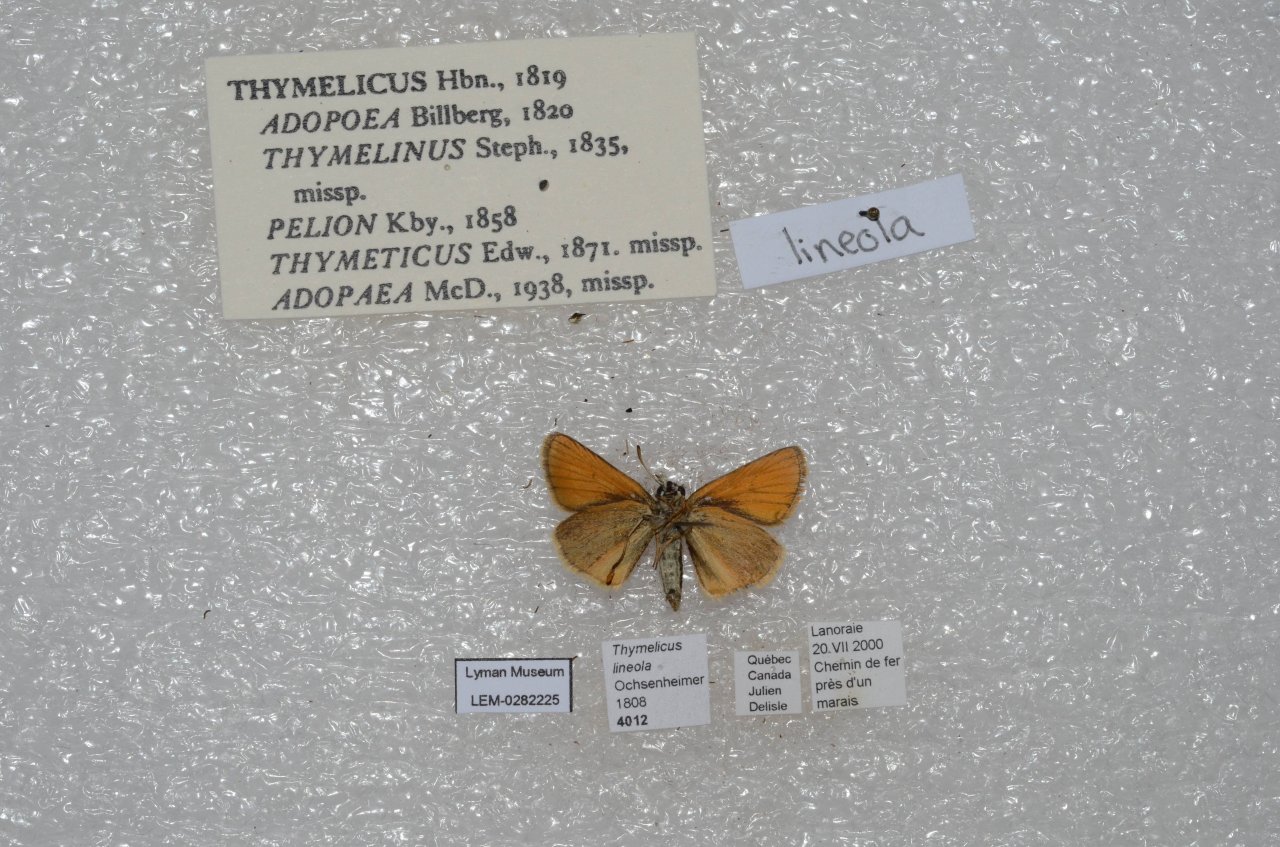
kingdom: Animalia
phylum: Arthropoda
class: Insecta
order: Lepidoptera
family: Hesperiidae
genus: Thymelicus
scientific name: Thymelicus lineola
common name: European Skipper
